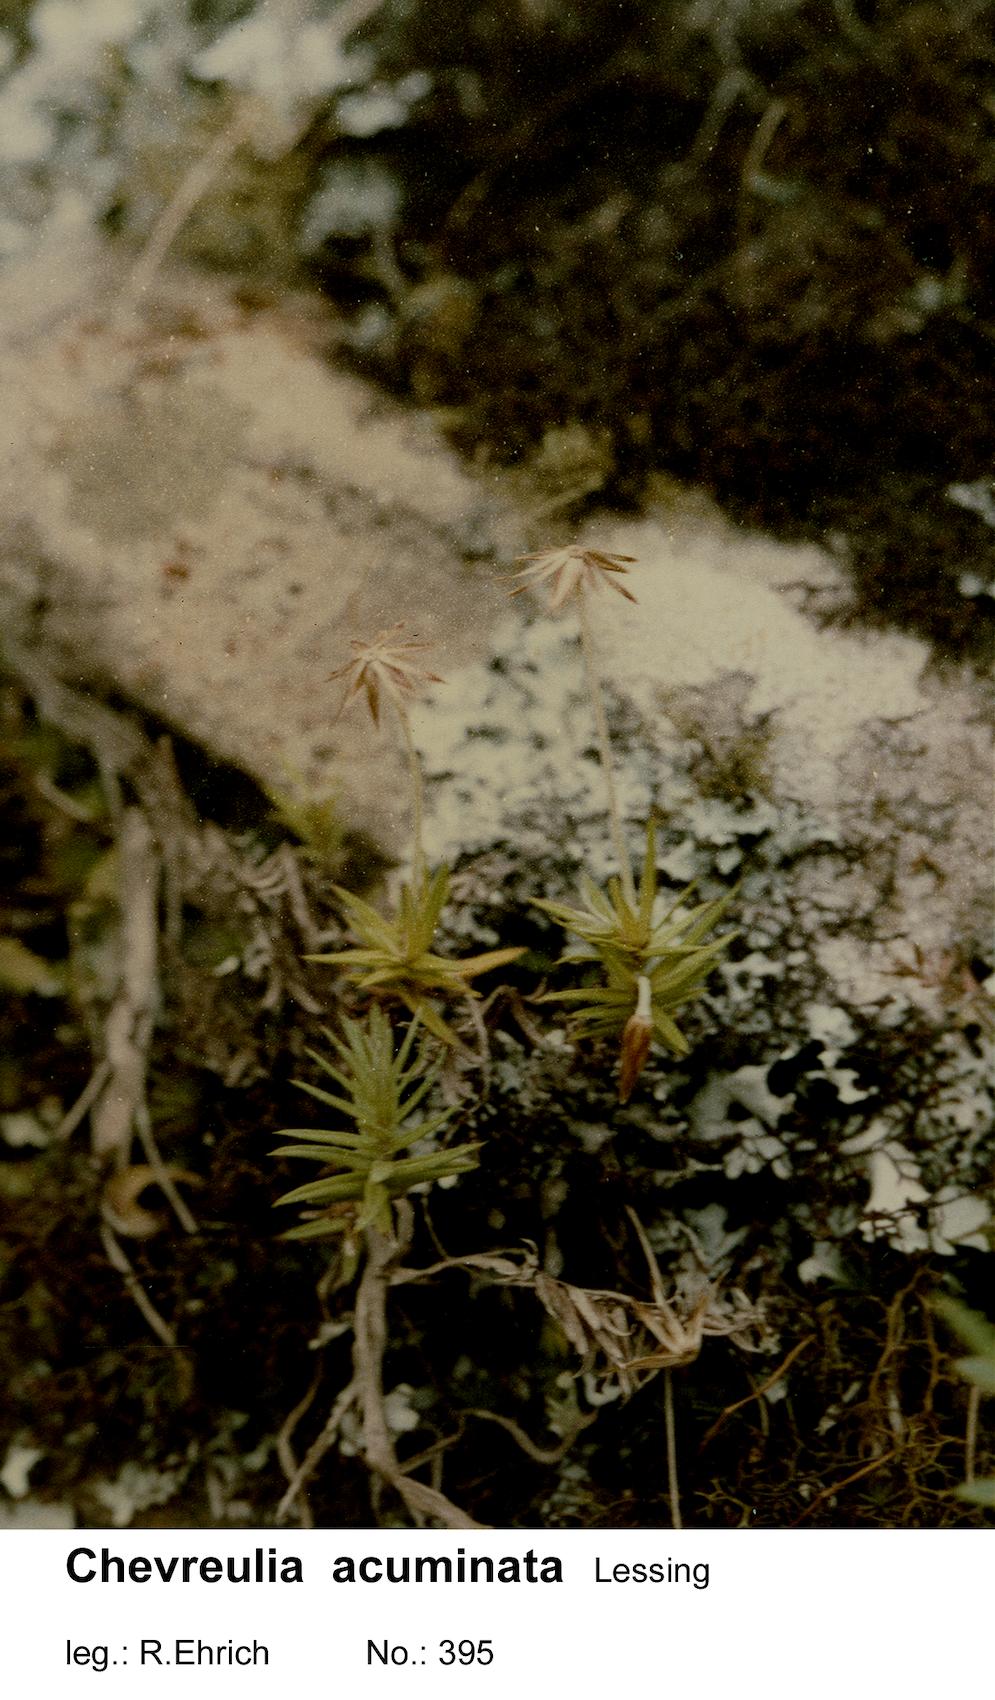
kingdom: Plantae
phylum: Tracheophyta
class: Magnoliopsida
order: Asterales
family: Asteraceae
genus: Chevreulia
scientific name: Chevreulia acuminata
